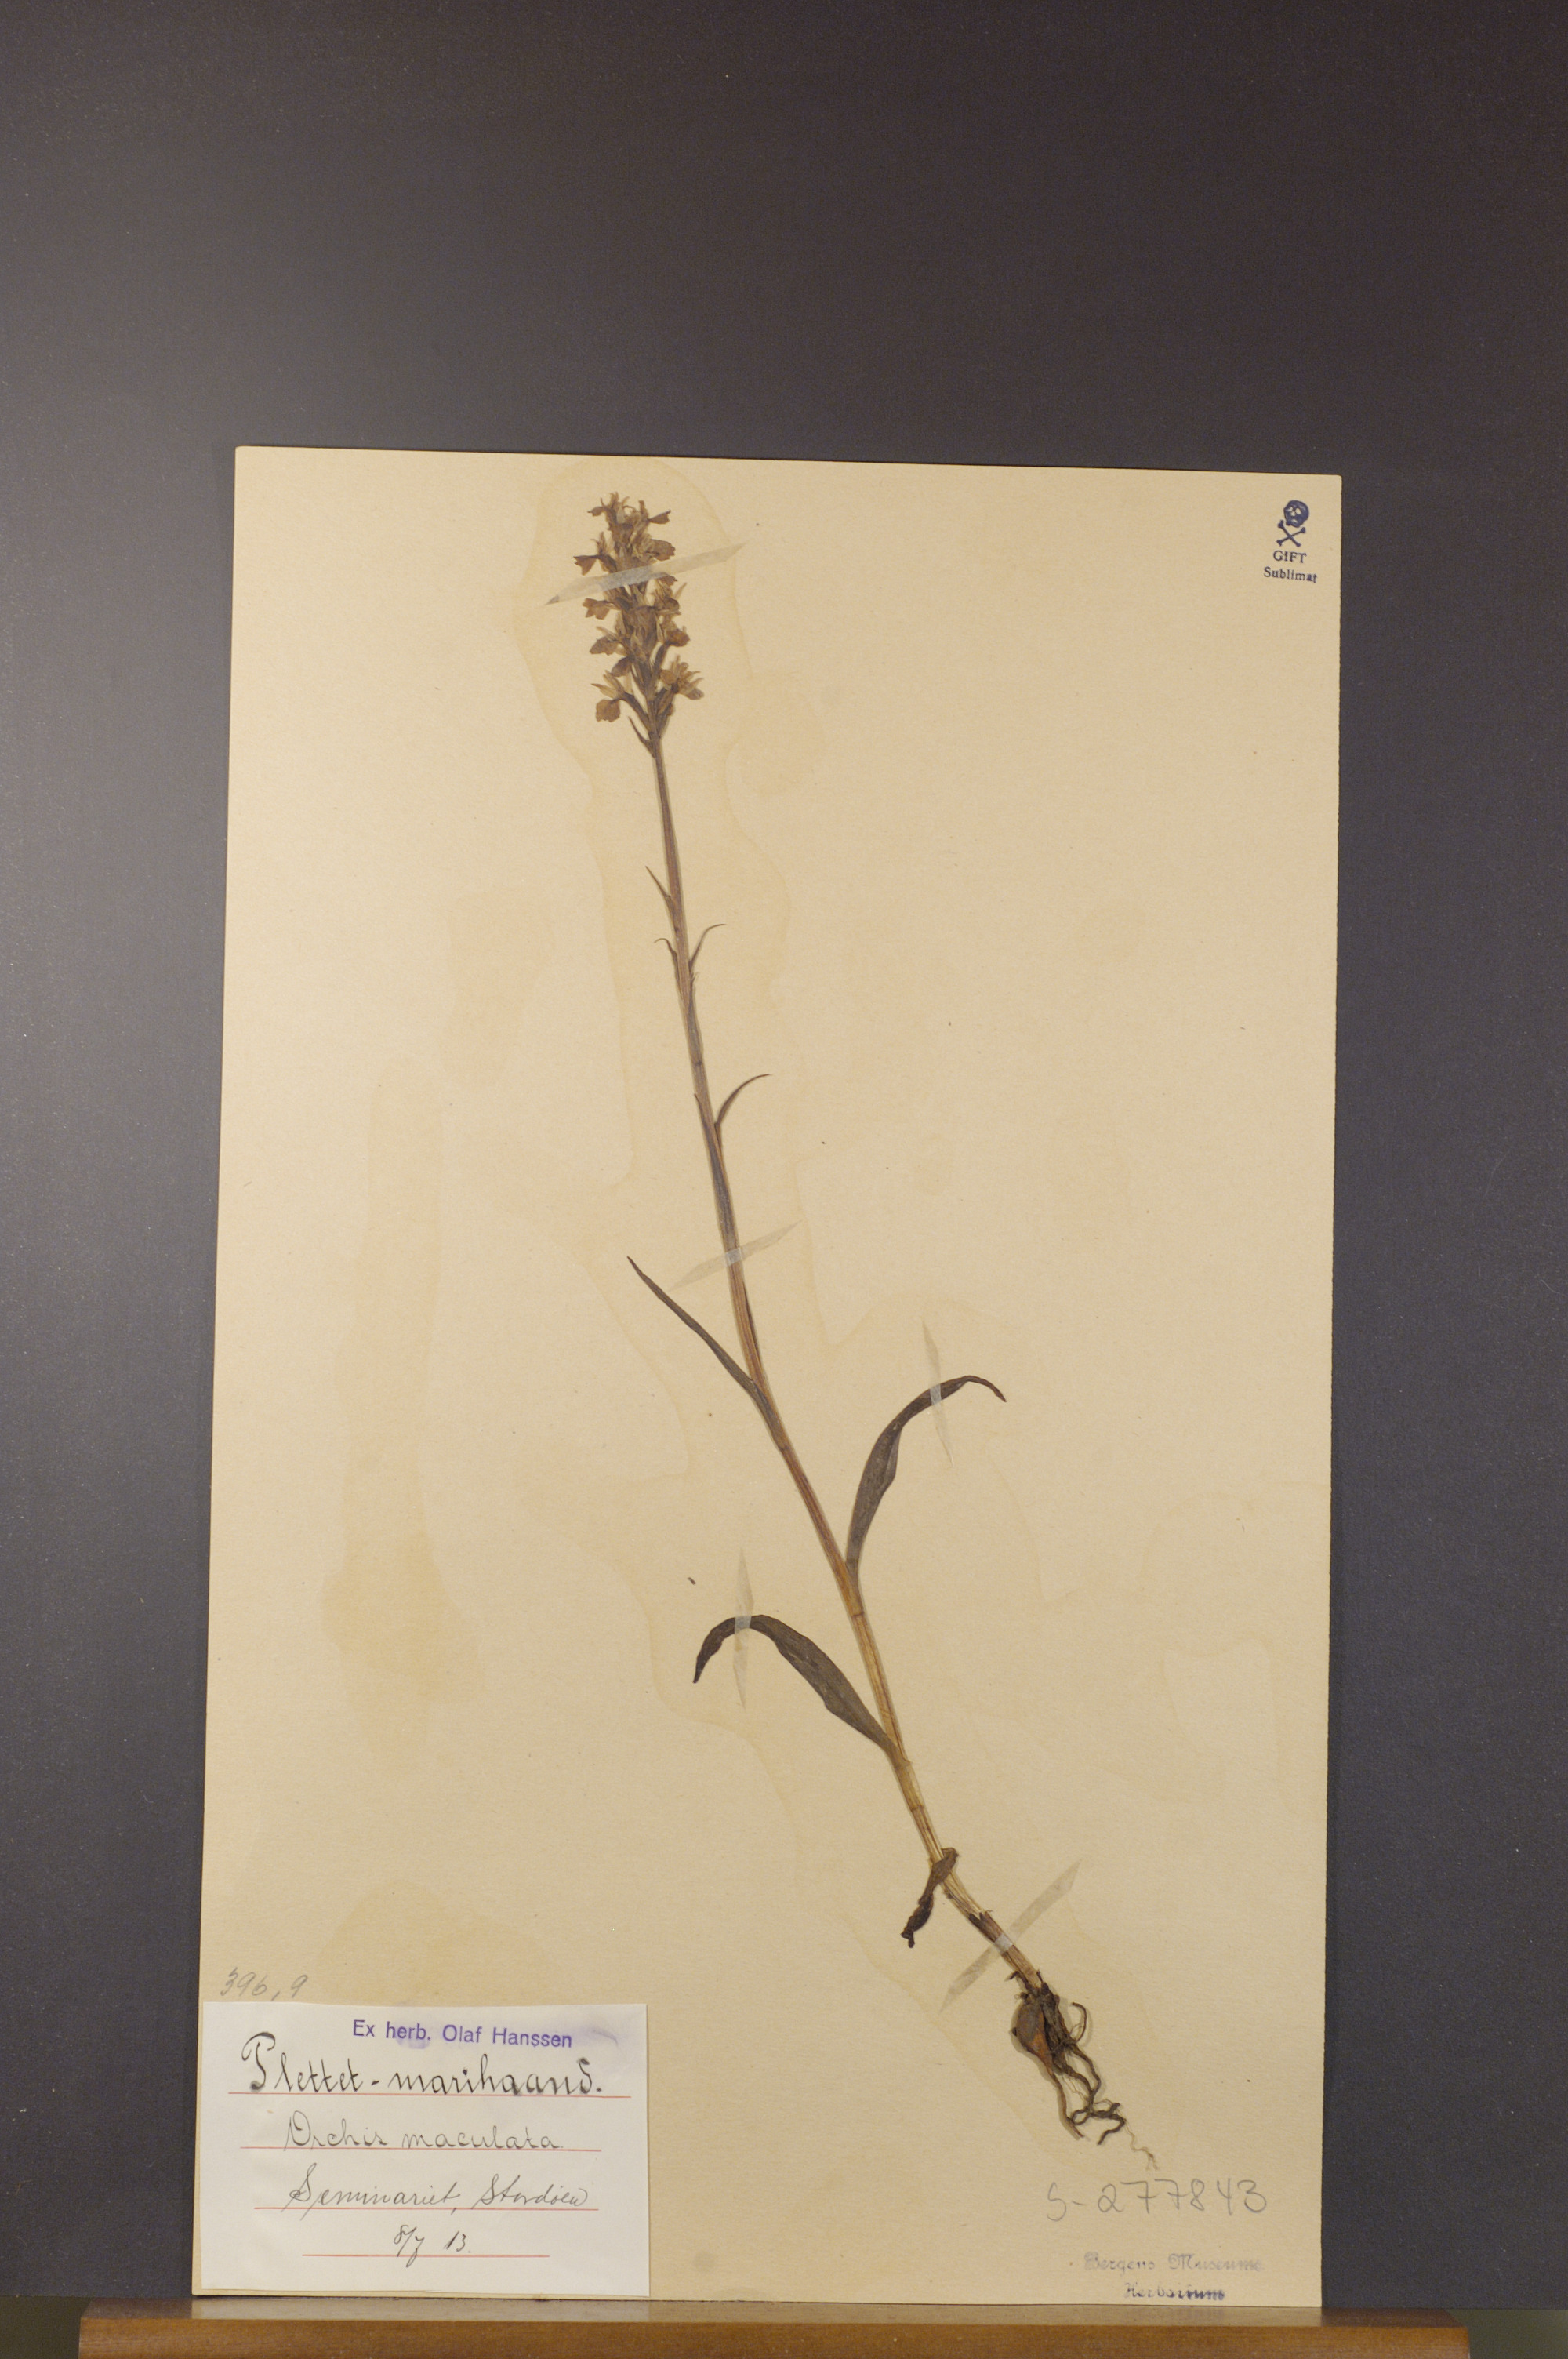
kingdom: Plantae
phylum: Tracheophyta
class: Liliopsida
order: Asparagales
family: Orchidaceae
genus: Dactylorhiza
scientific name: Dactylorhiza maculata
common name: Heath spotted-orchid
